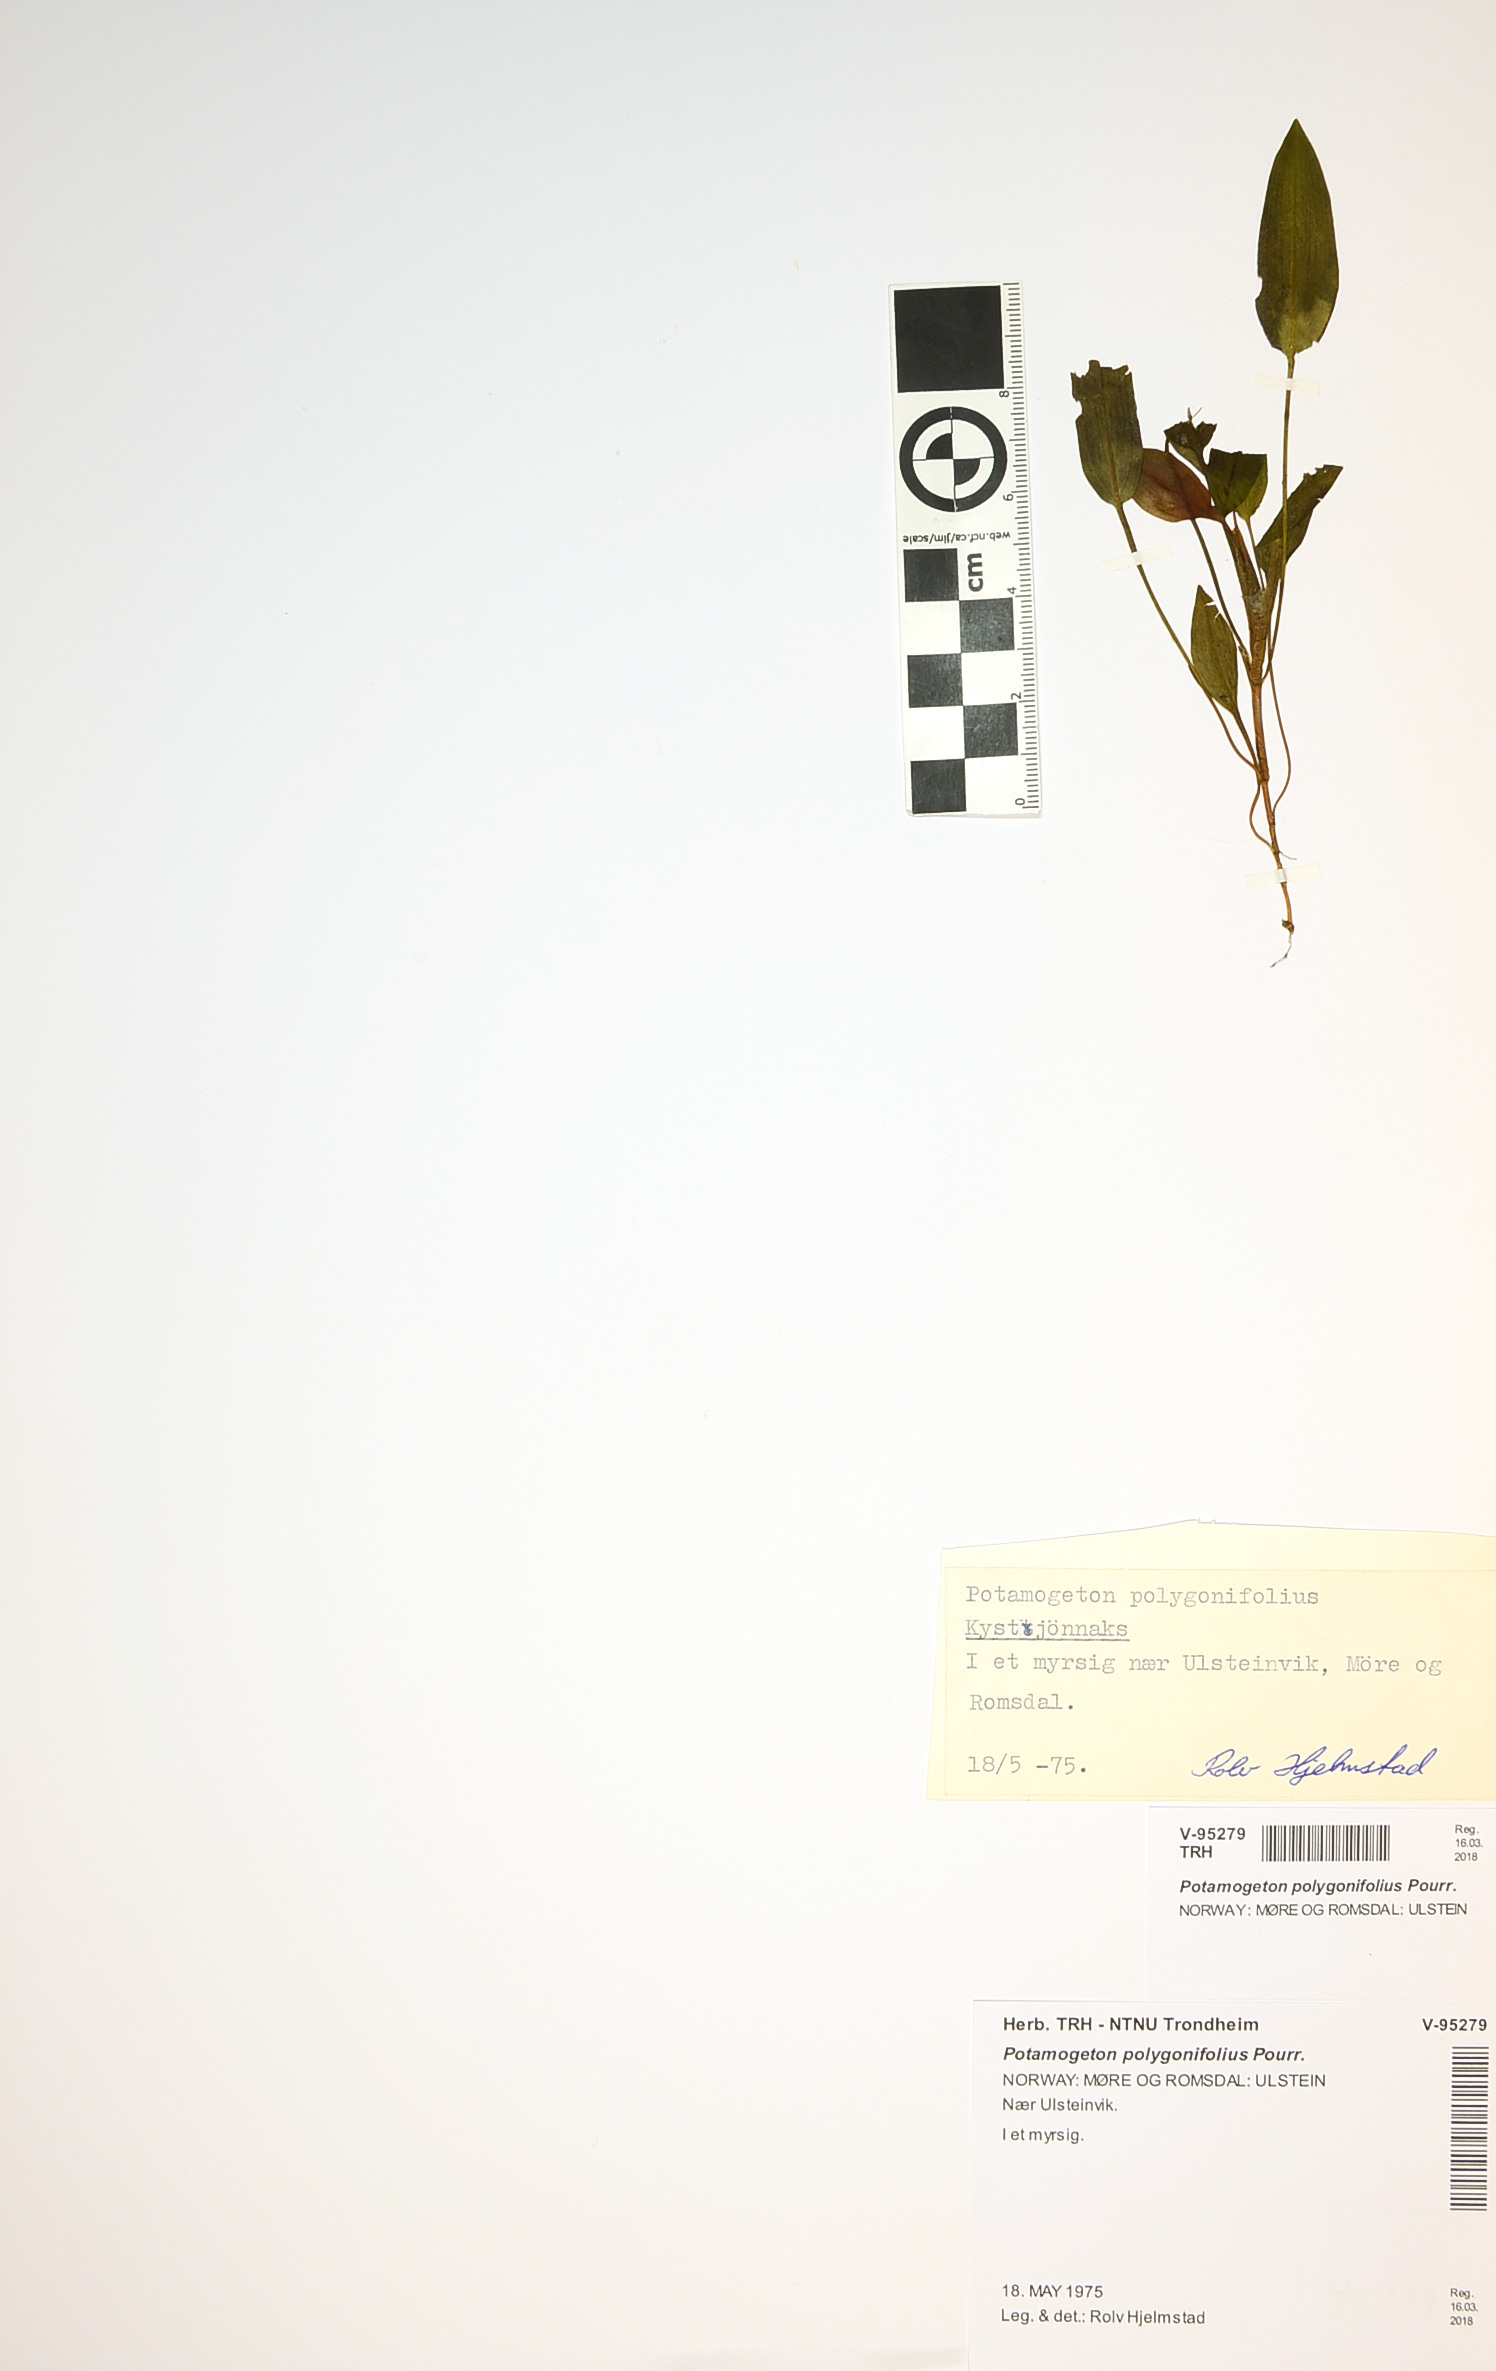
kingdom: Plantae
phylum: Tracheophyta
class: Liliopsida
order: Alismatales
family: Potamogetonaceae
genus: Potamogeton
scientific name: Potamogeton polygonifolius
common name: Bog pondweed
